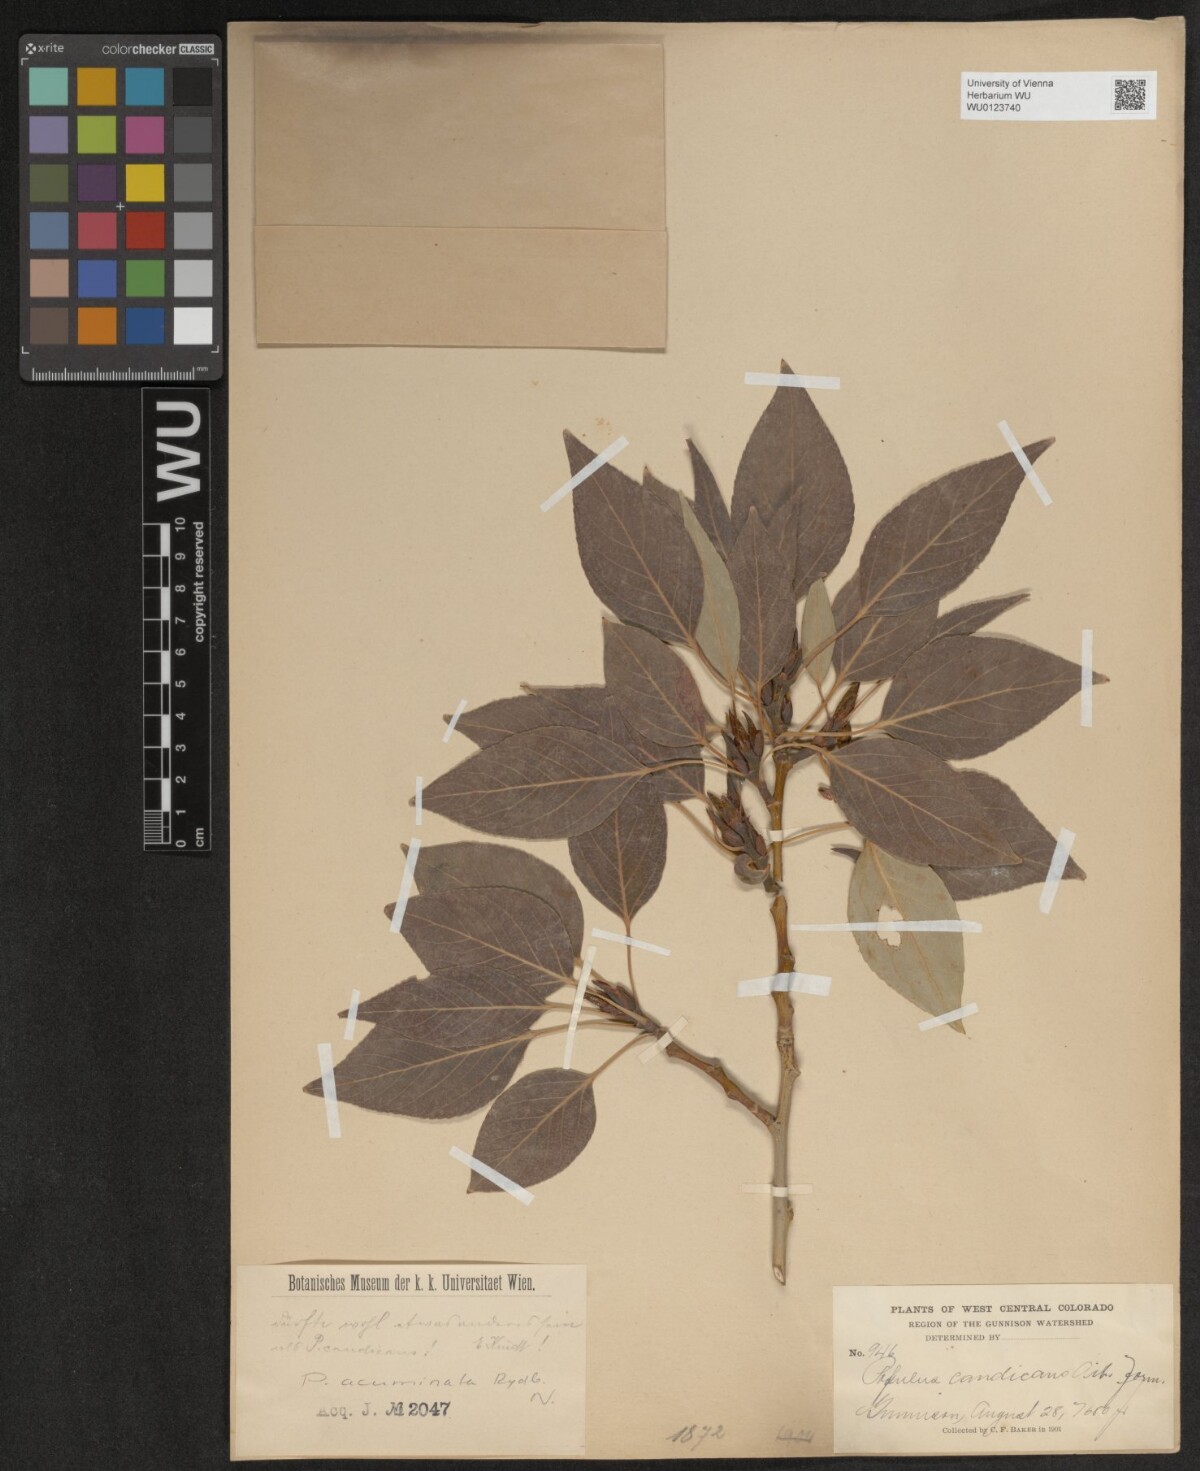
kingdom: Plantae
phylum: Tracheophyta
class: Magnoliopsida
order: Malpighiales
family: Salicaceae
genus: Populus
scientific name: Populus acuminata
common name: Lance-leaved cottonwood
